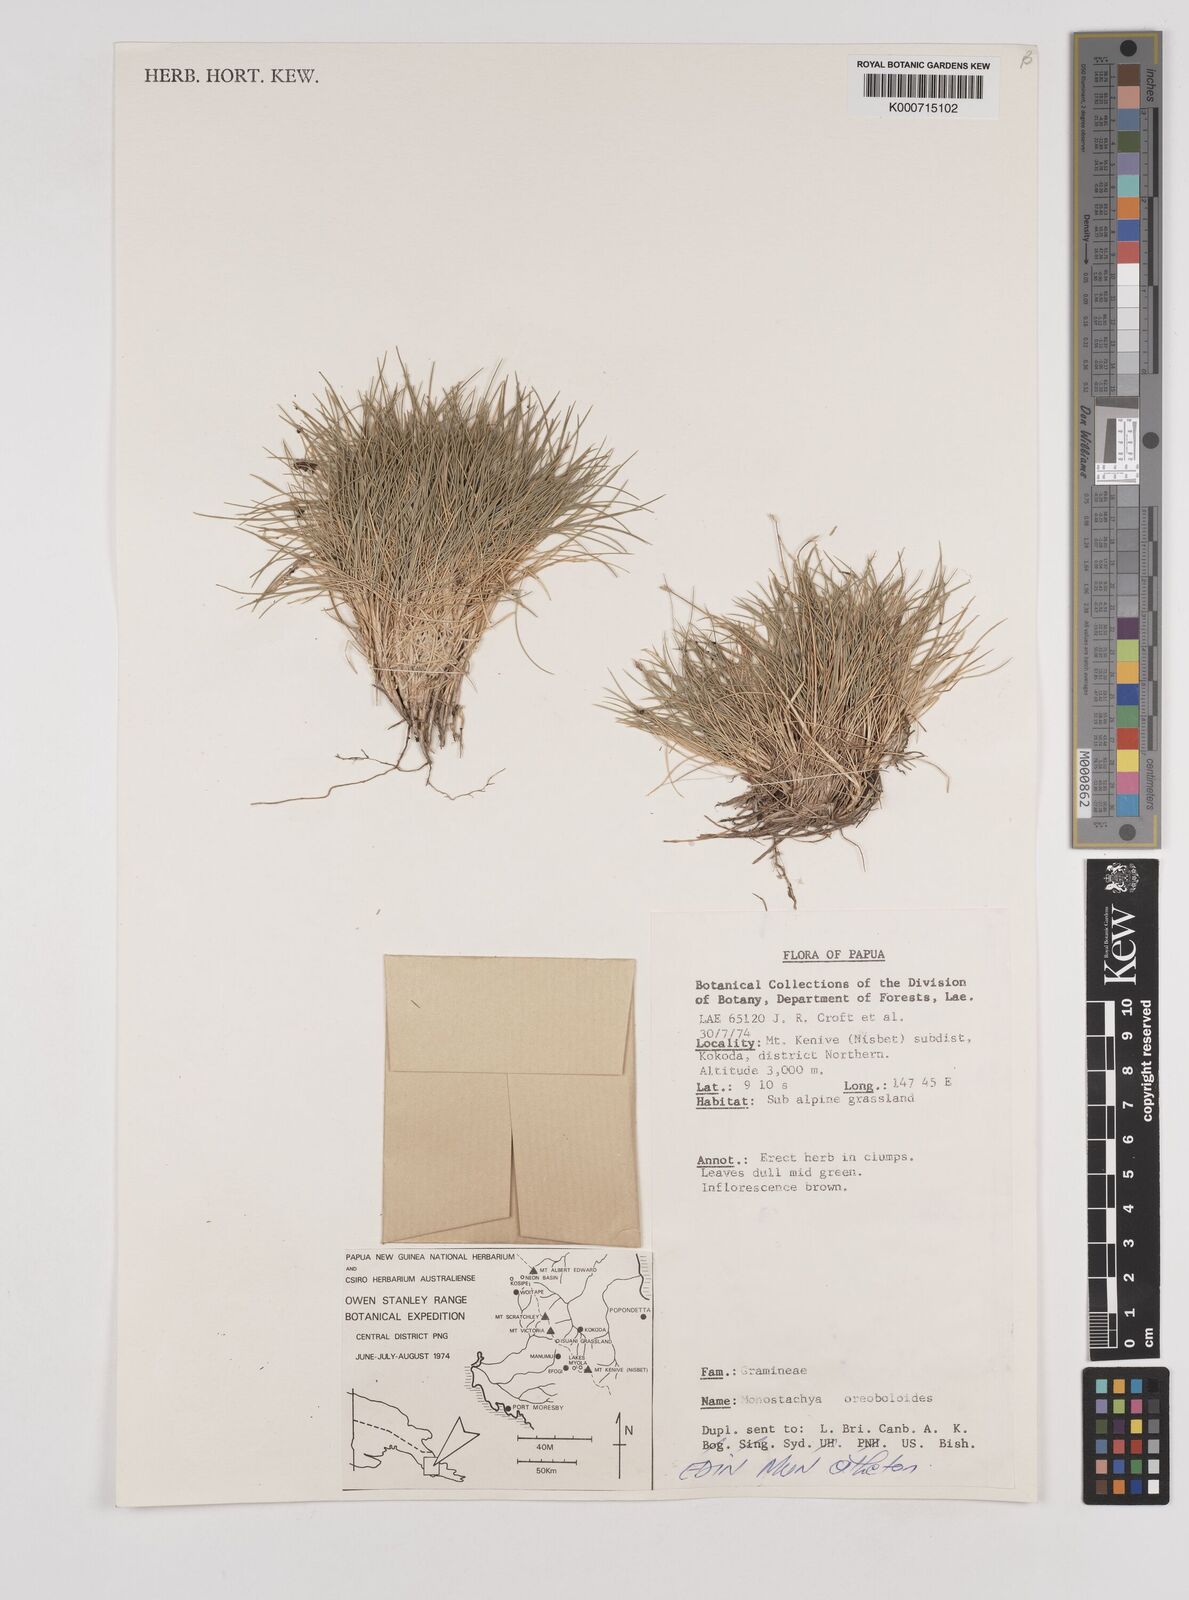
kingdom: Plantae
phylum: Tracheophyta
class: Liliopsida
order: Poales
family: Poaceae
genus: Rytidosperma
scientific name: Rytidosperma oreoboloides
